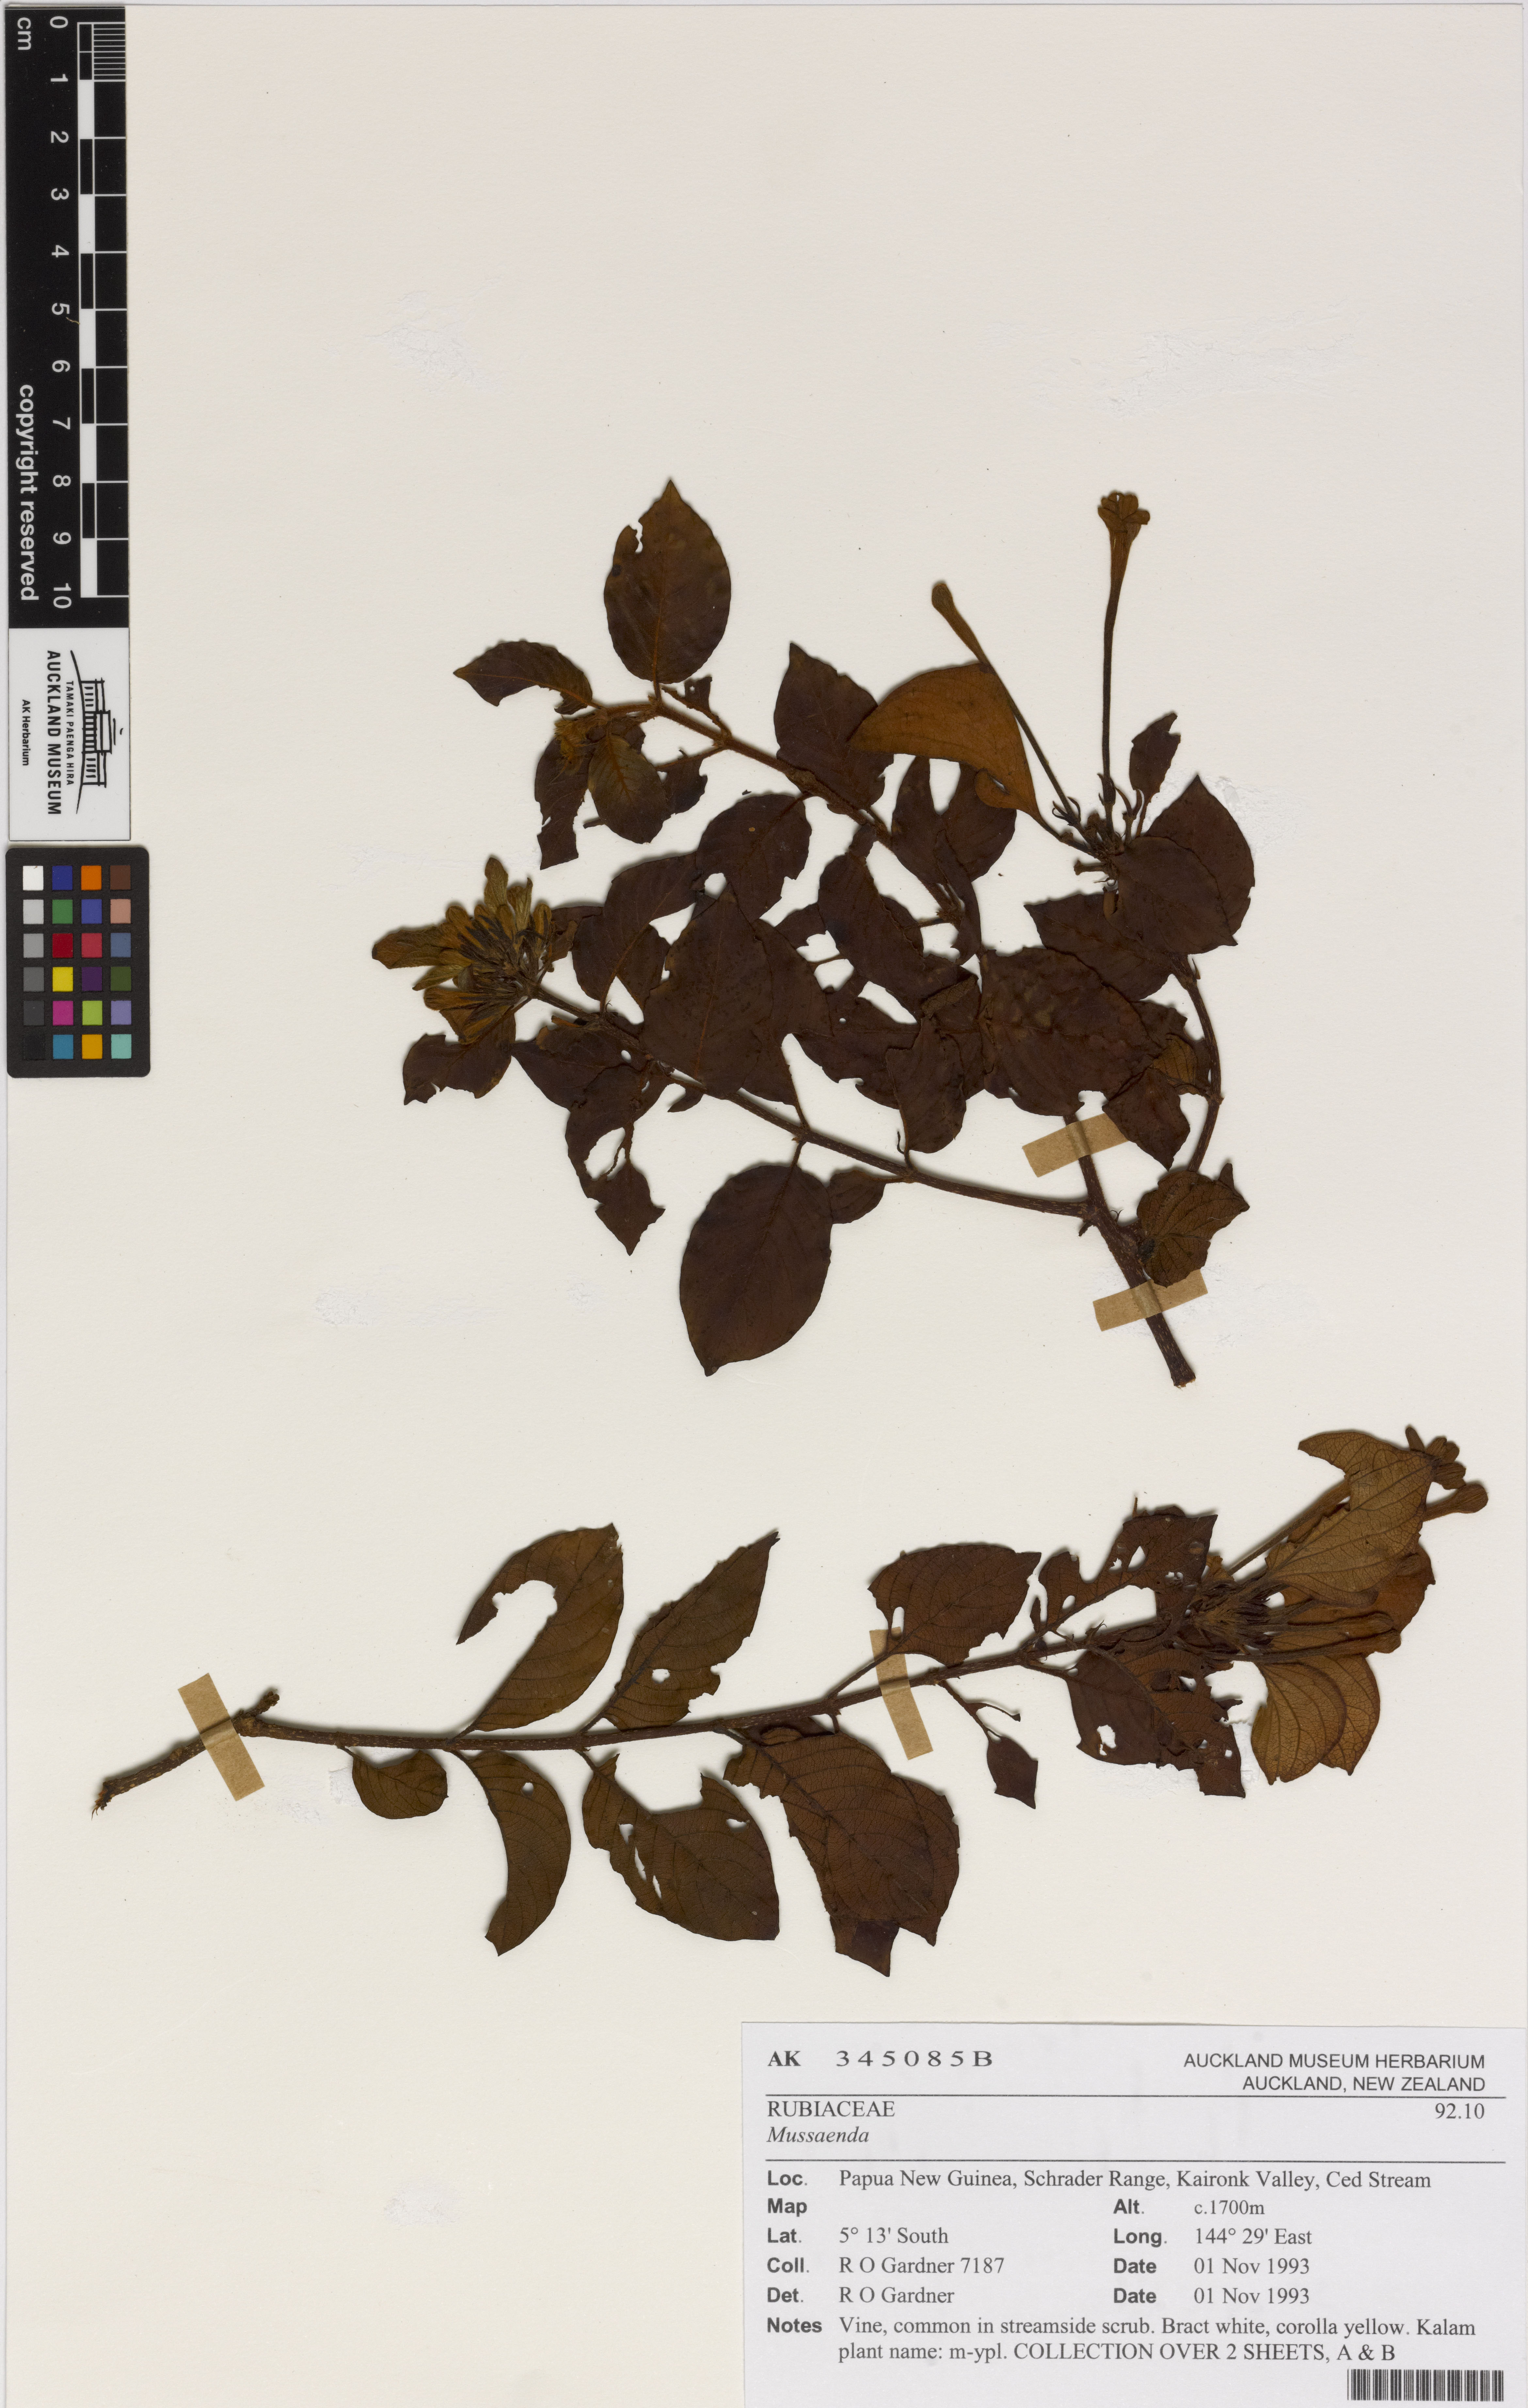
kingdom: Plantae
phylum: Tracheophyta
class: Magnoliopsida
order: Gentianales
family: Rubiaceae
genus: Mussaenda
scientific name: Mussaenda
